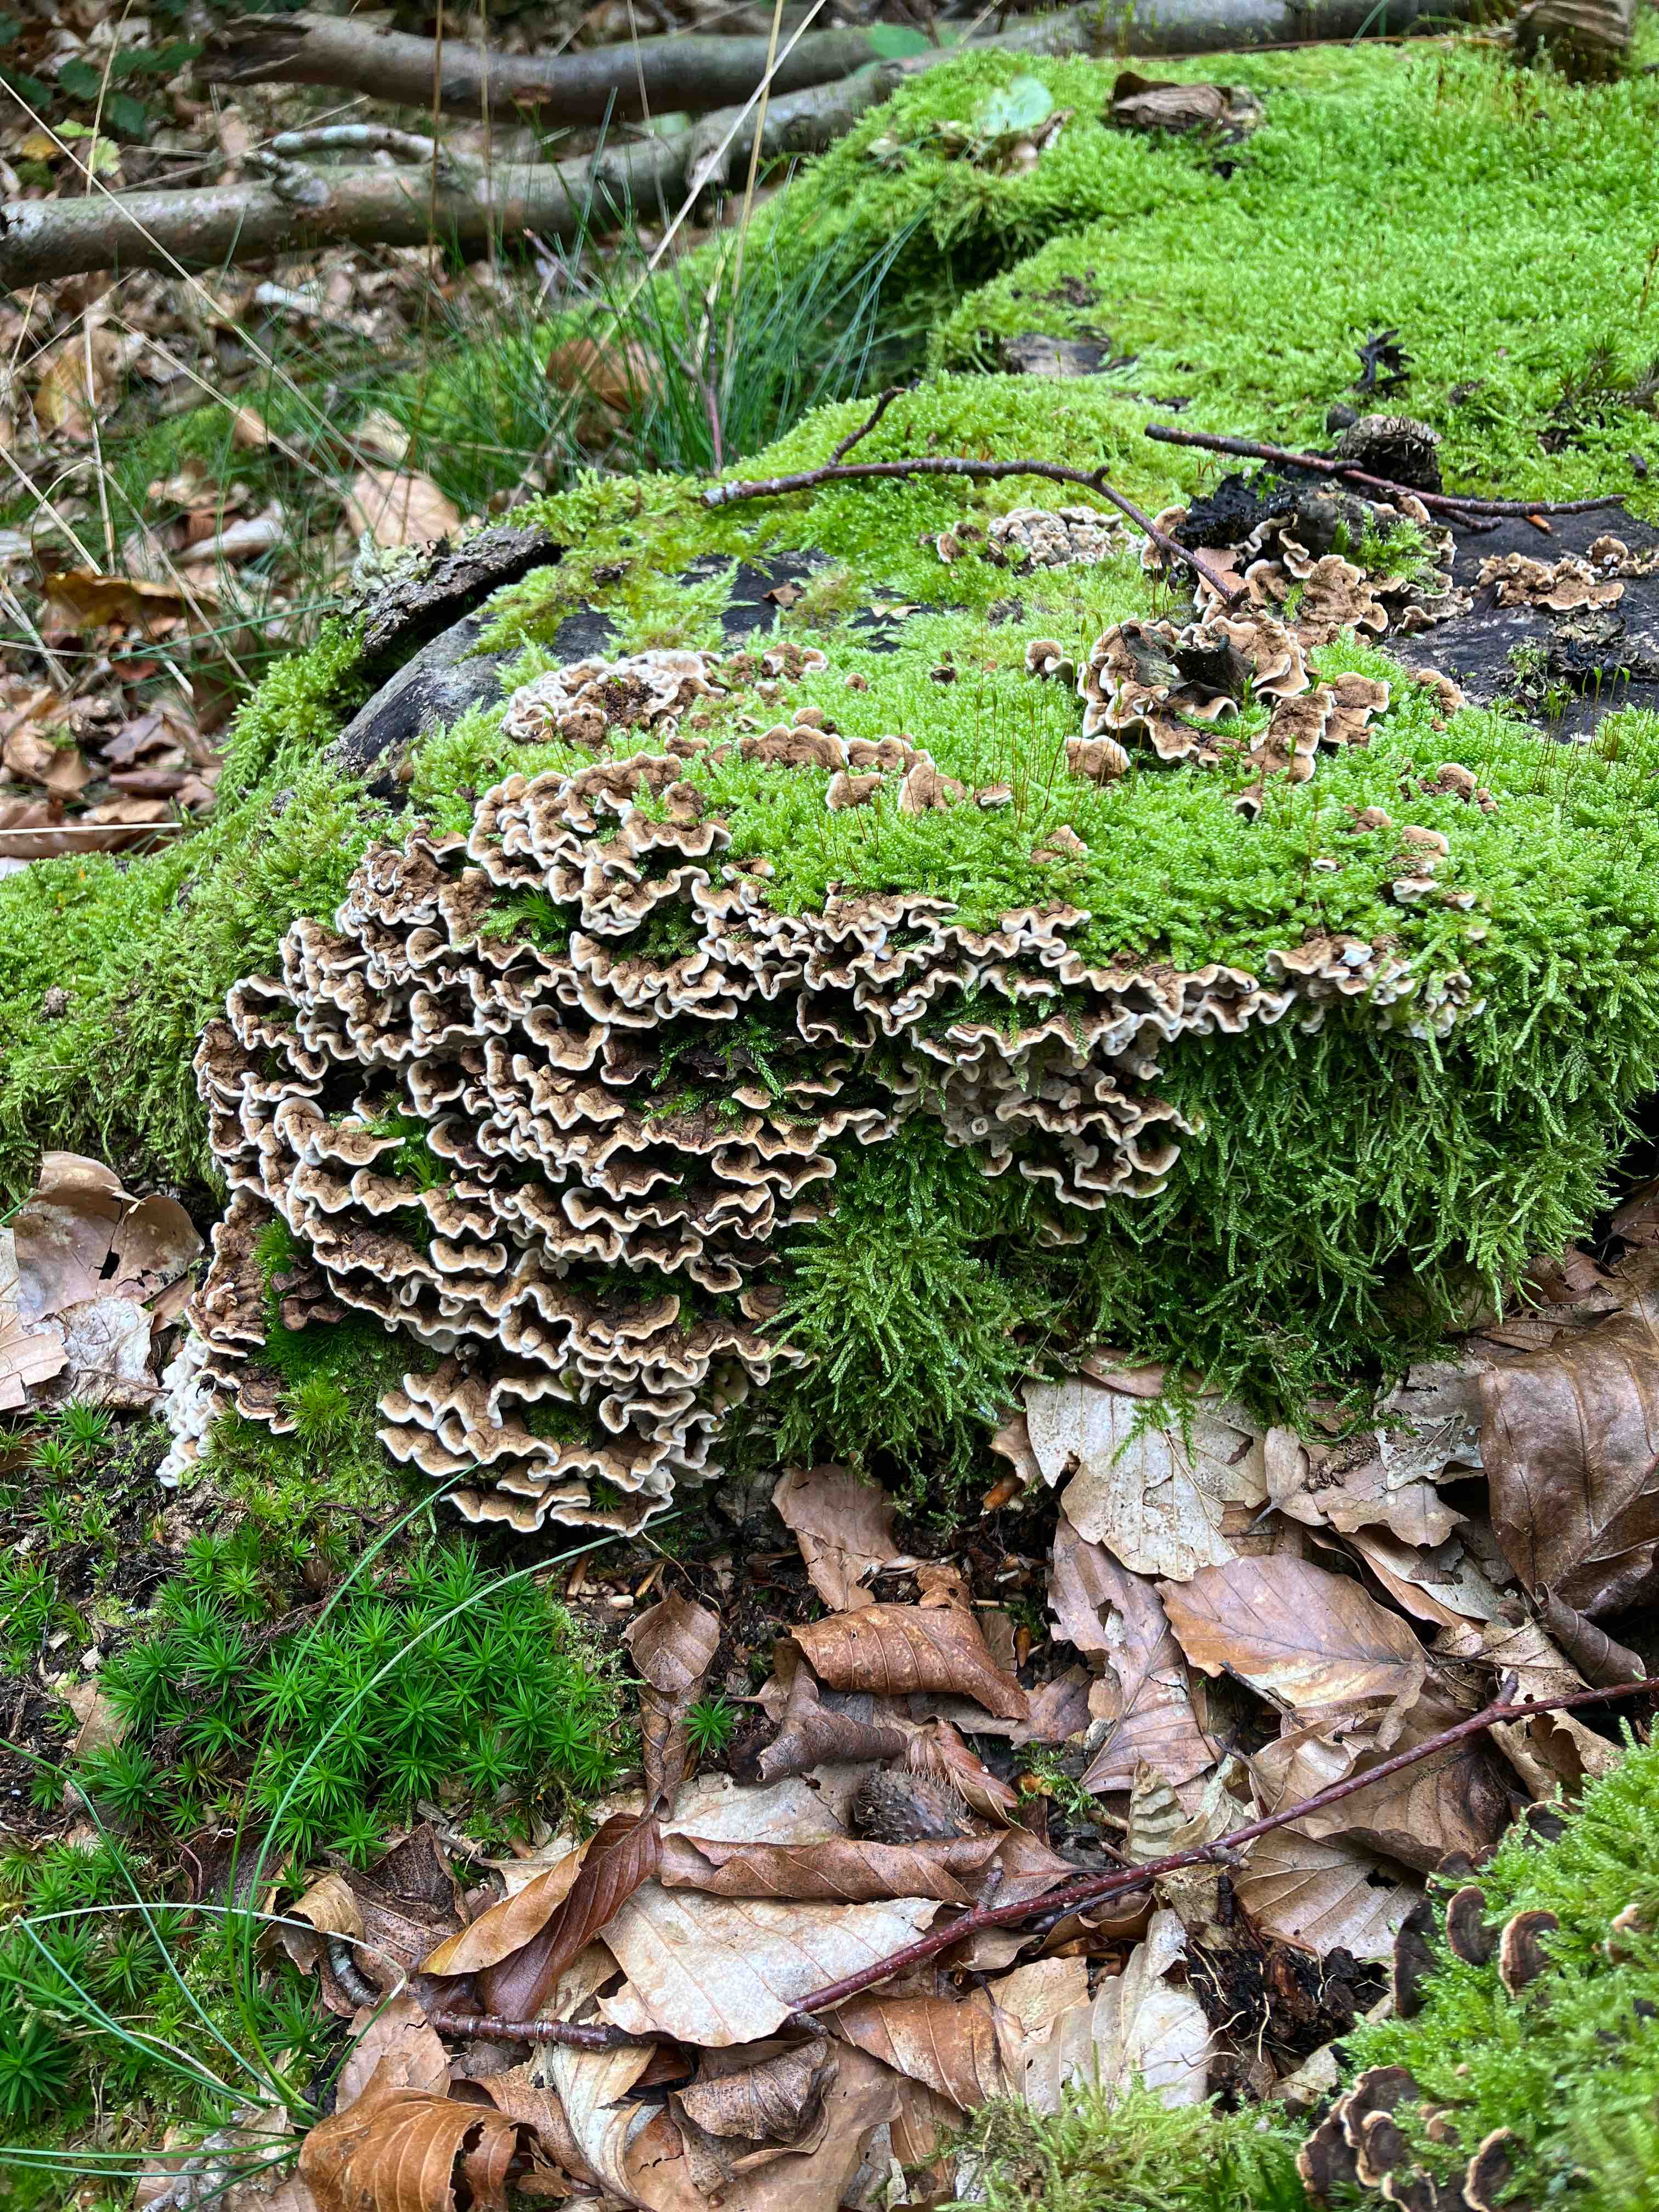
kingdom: Fungi
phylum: Basidiomycota
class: Agaricomycetes
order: Russulales
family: Hericiaceae
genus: Laxitextum
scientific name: Laxitextum bicolor
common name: tvefarvet filtskind
